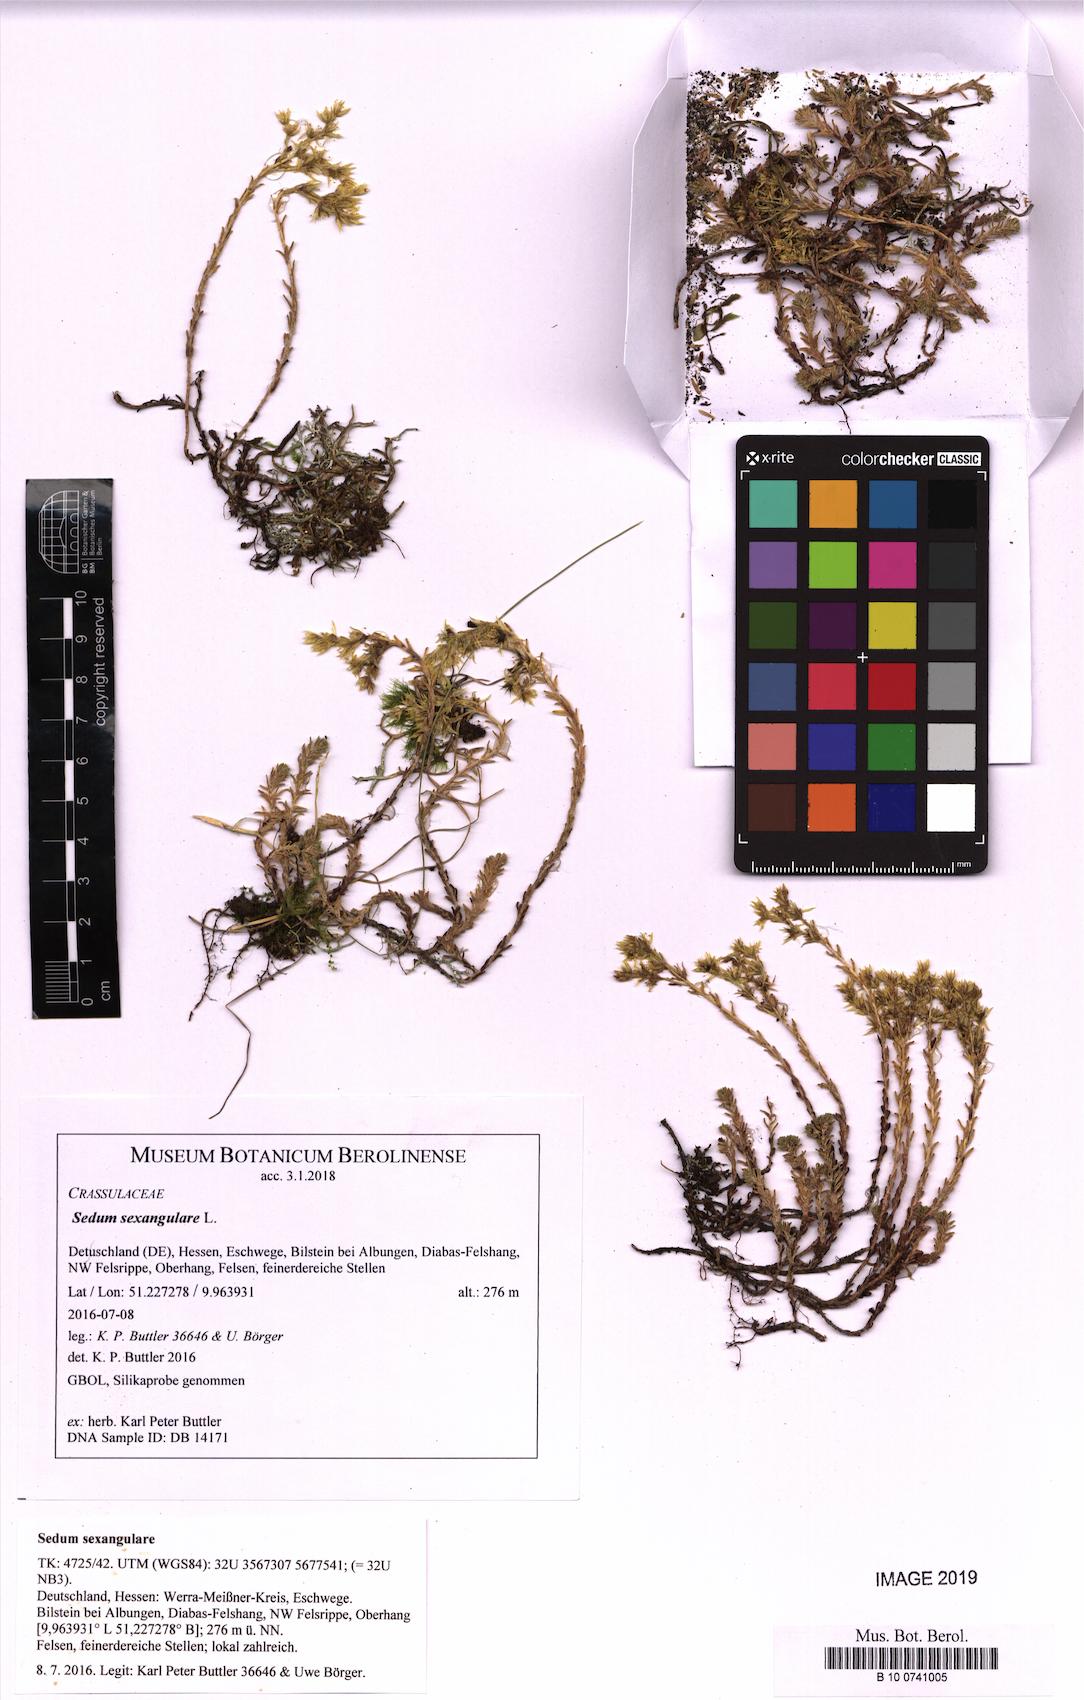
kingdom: Plantae
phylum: Tracheophyta
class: Magnoliopsida
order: Saxifragales
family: Crassulaceae
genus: Sedum
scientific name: Sedum sexangulare
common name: Tasteless stonecrop
